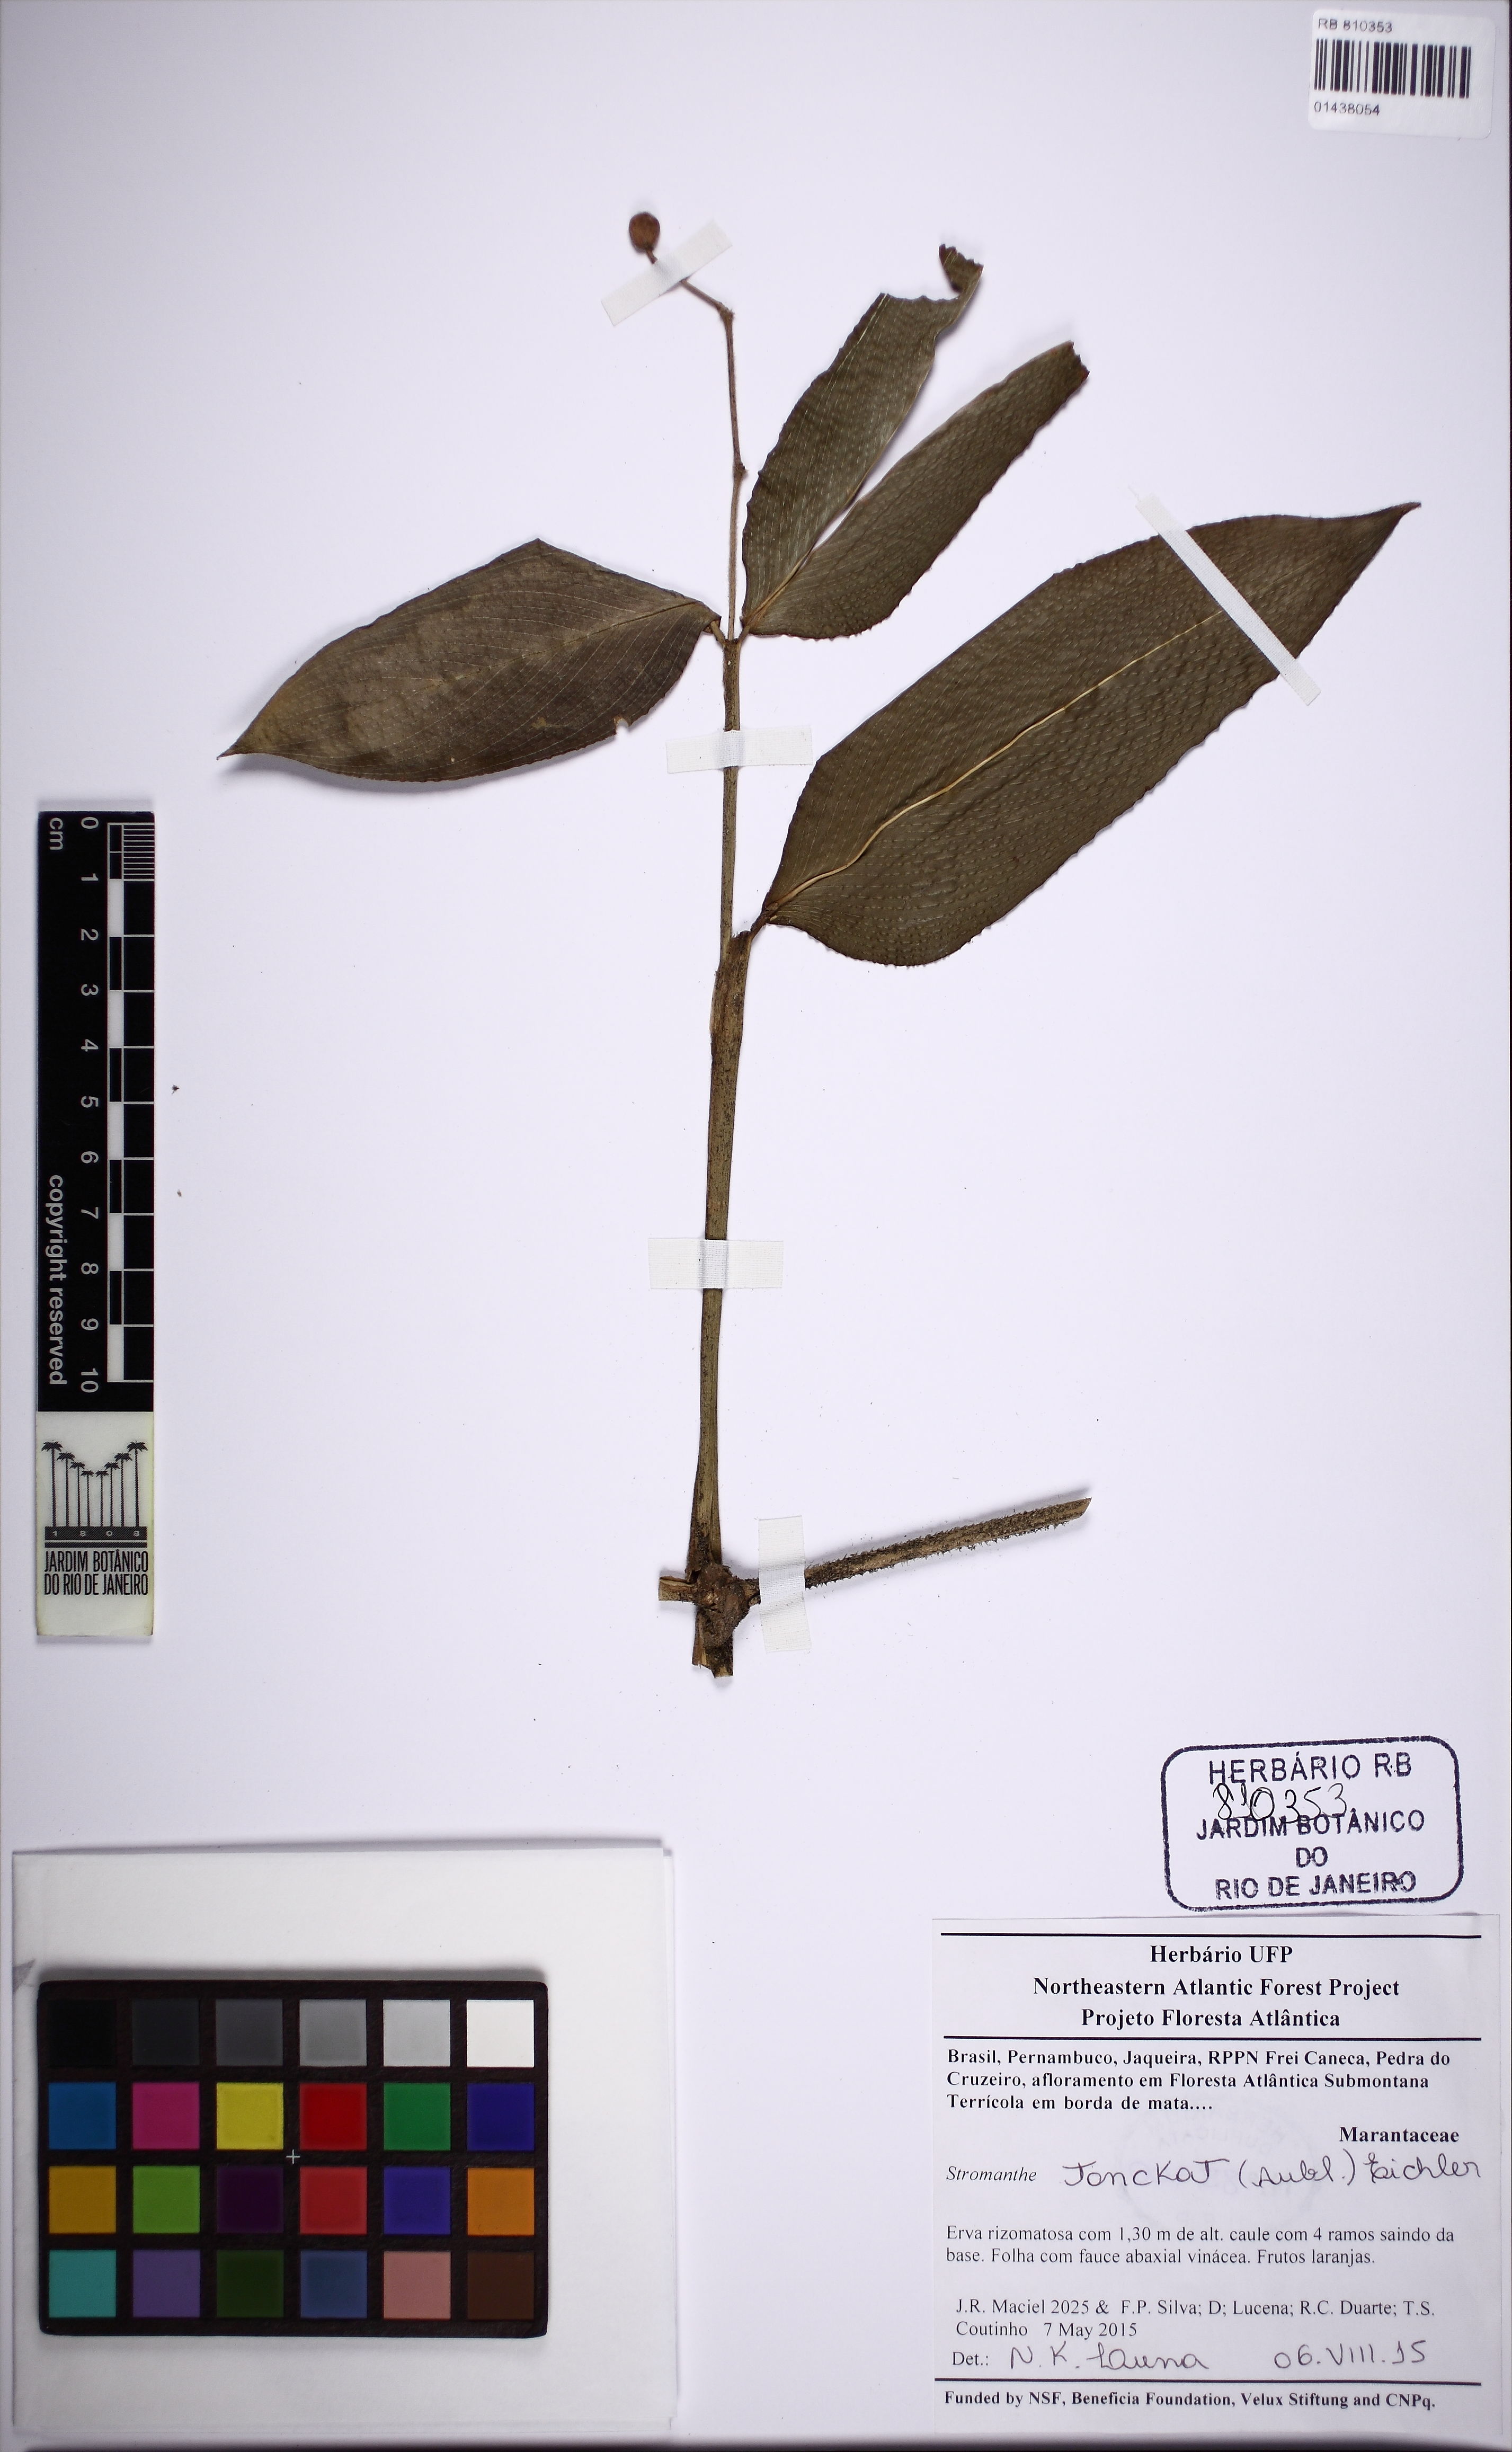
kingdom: Plantae
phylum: Tracheophyta
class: Liliopsida
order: Zingiberales
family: Marantaceae
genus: Stromanthe
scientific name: Stromanthe tonckat
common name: Stromanthe
